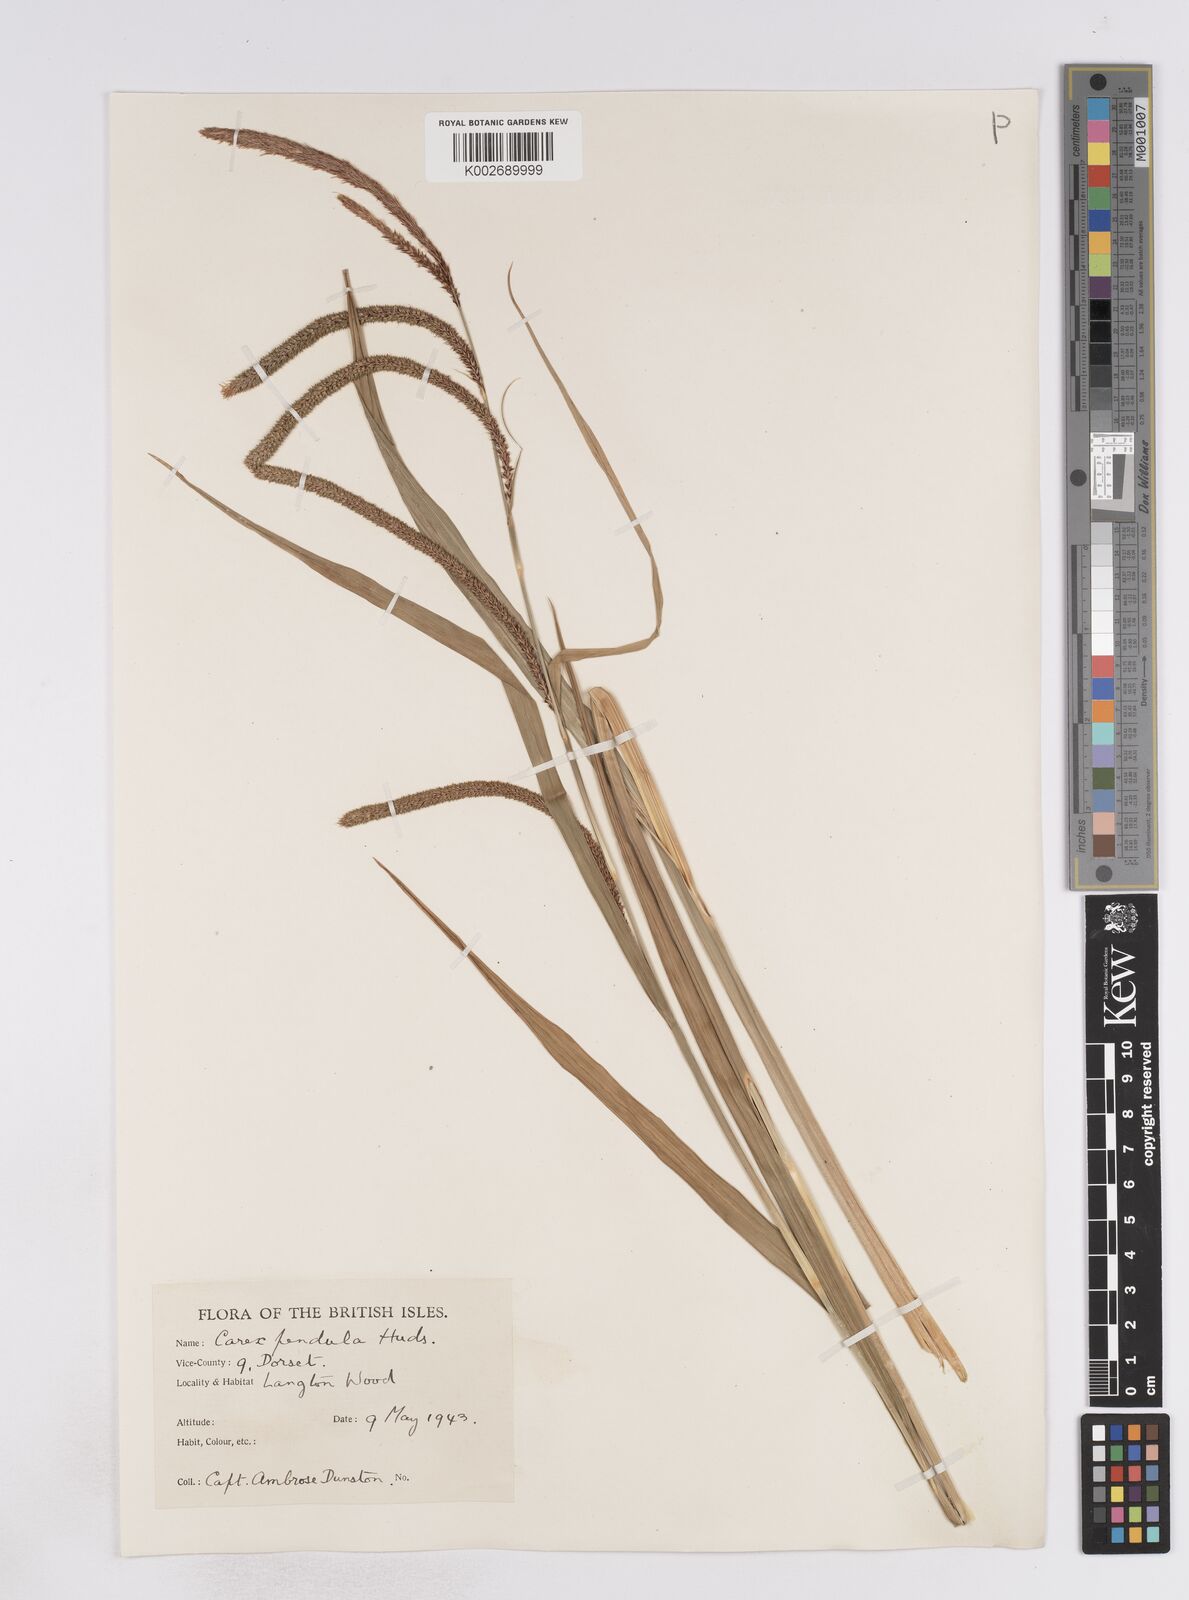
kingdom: Plantae
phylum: Tracheophyta
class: Liliopsida
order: Poales
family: Cyperaceae
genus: Carex
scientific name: Carex pendula
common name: Pendulous sedge
